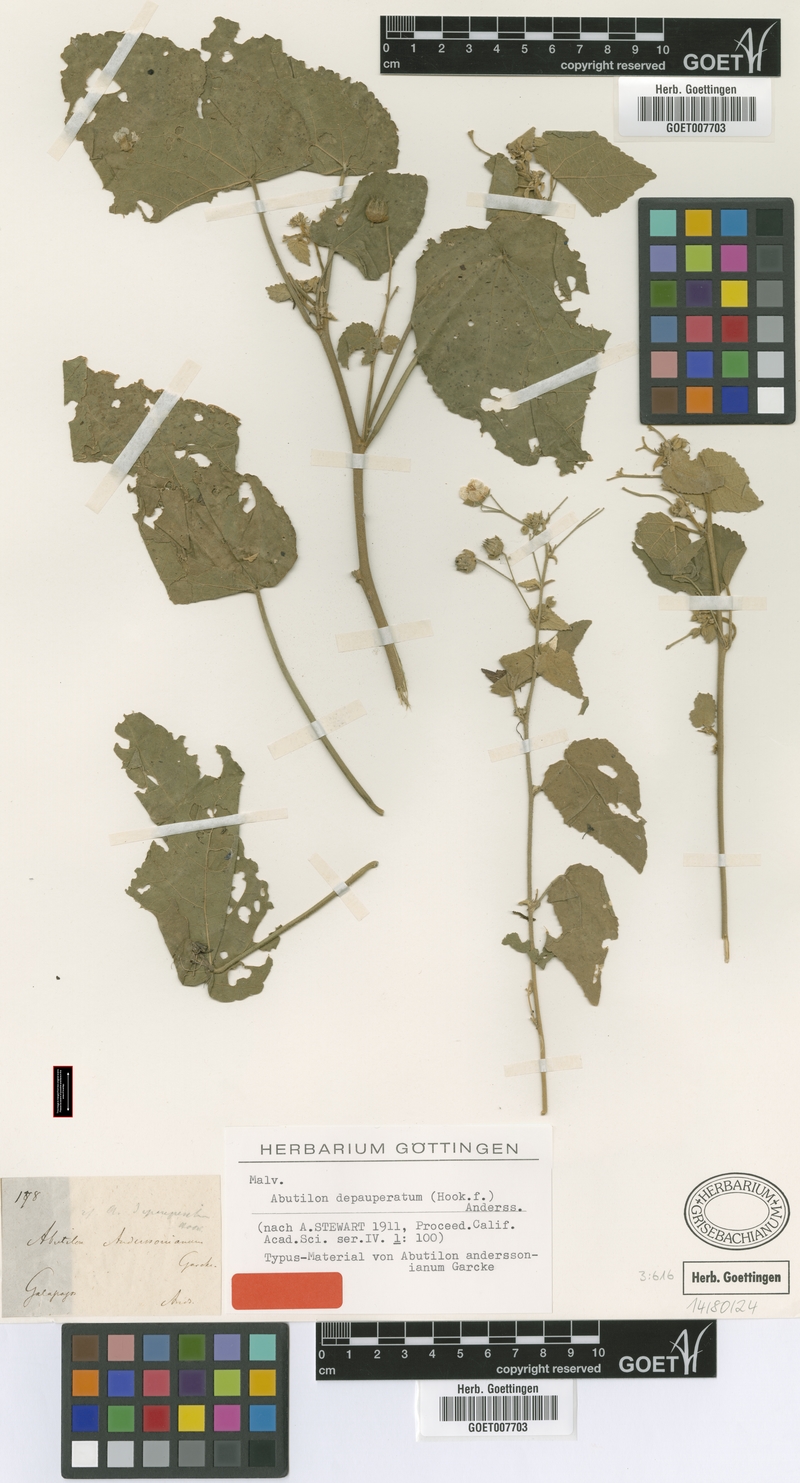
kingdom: Plantae
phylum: Tracheophyta
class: Magnoliopsida
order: Malvales
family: Malvaceae
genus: Pseudabutilon
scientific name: Pseudabutilon depauperatum
